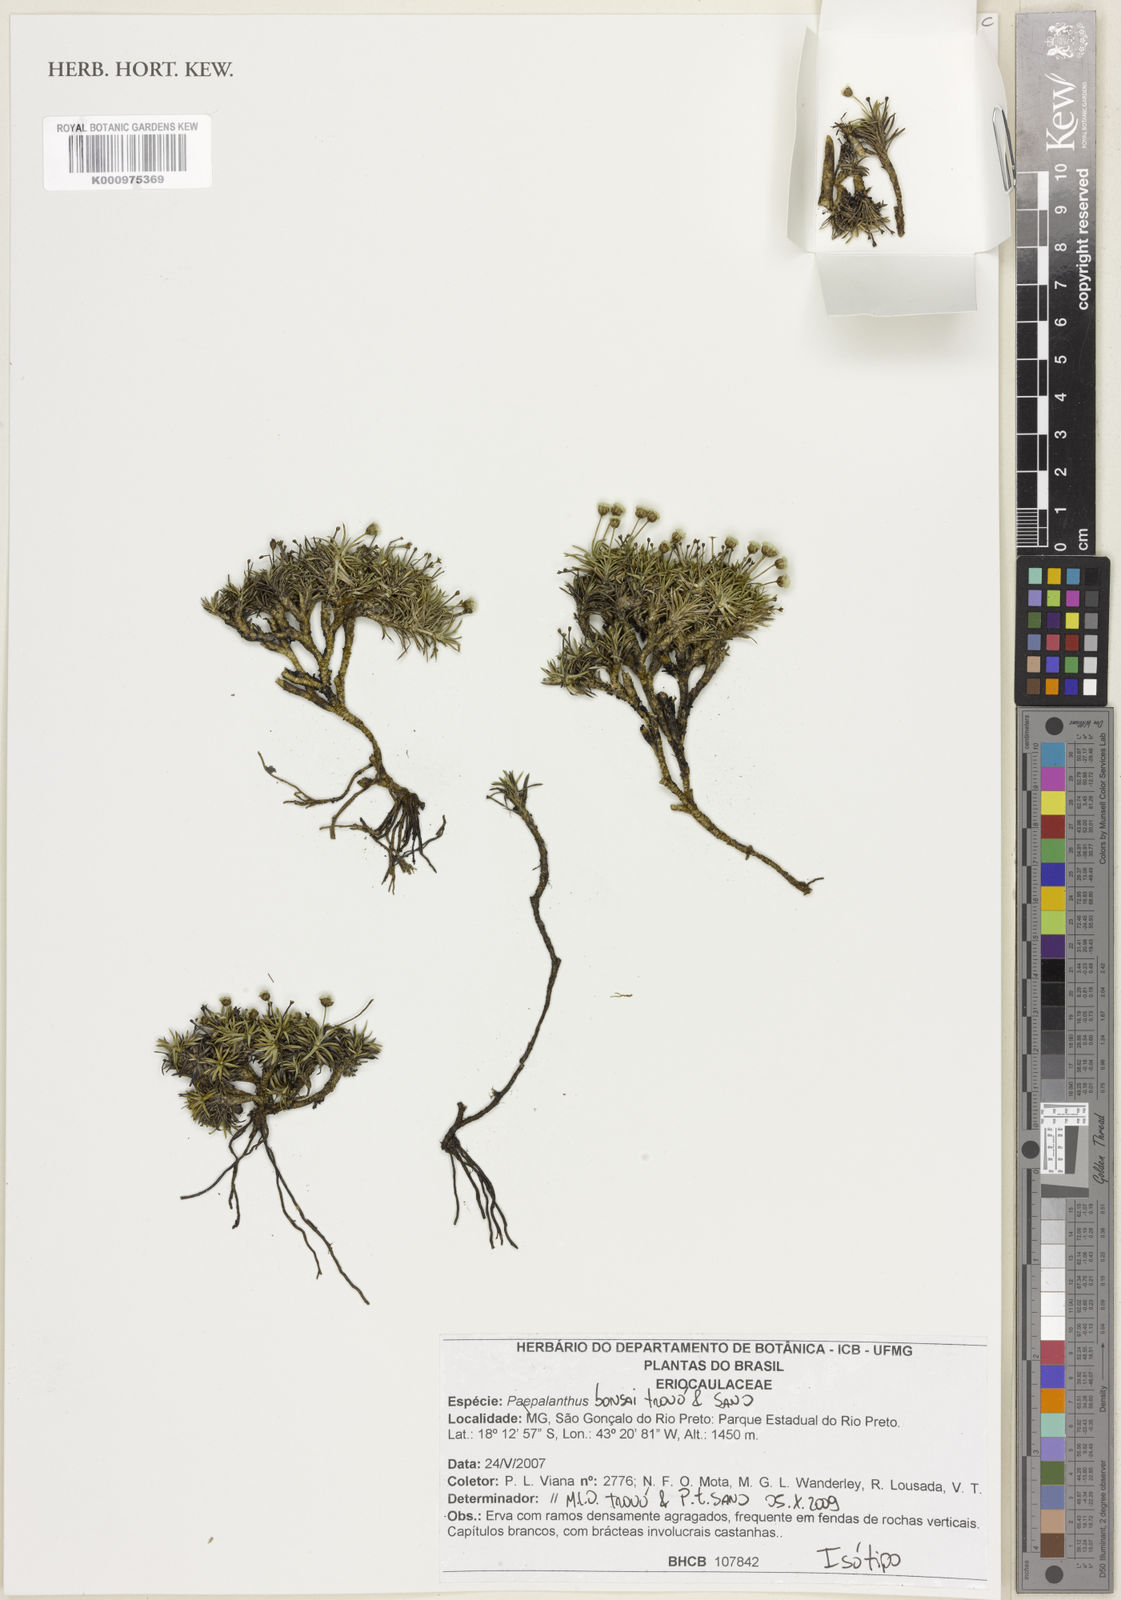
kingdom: Plantae
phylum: Tracheophyta
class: Liliopsida
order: Poales
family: Eriocaulaceae
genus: Paepalanthus
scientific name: Paepalanthus
